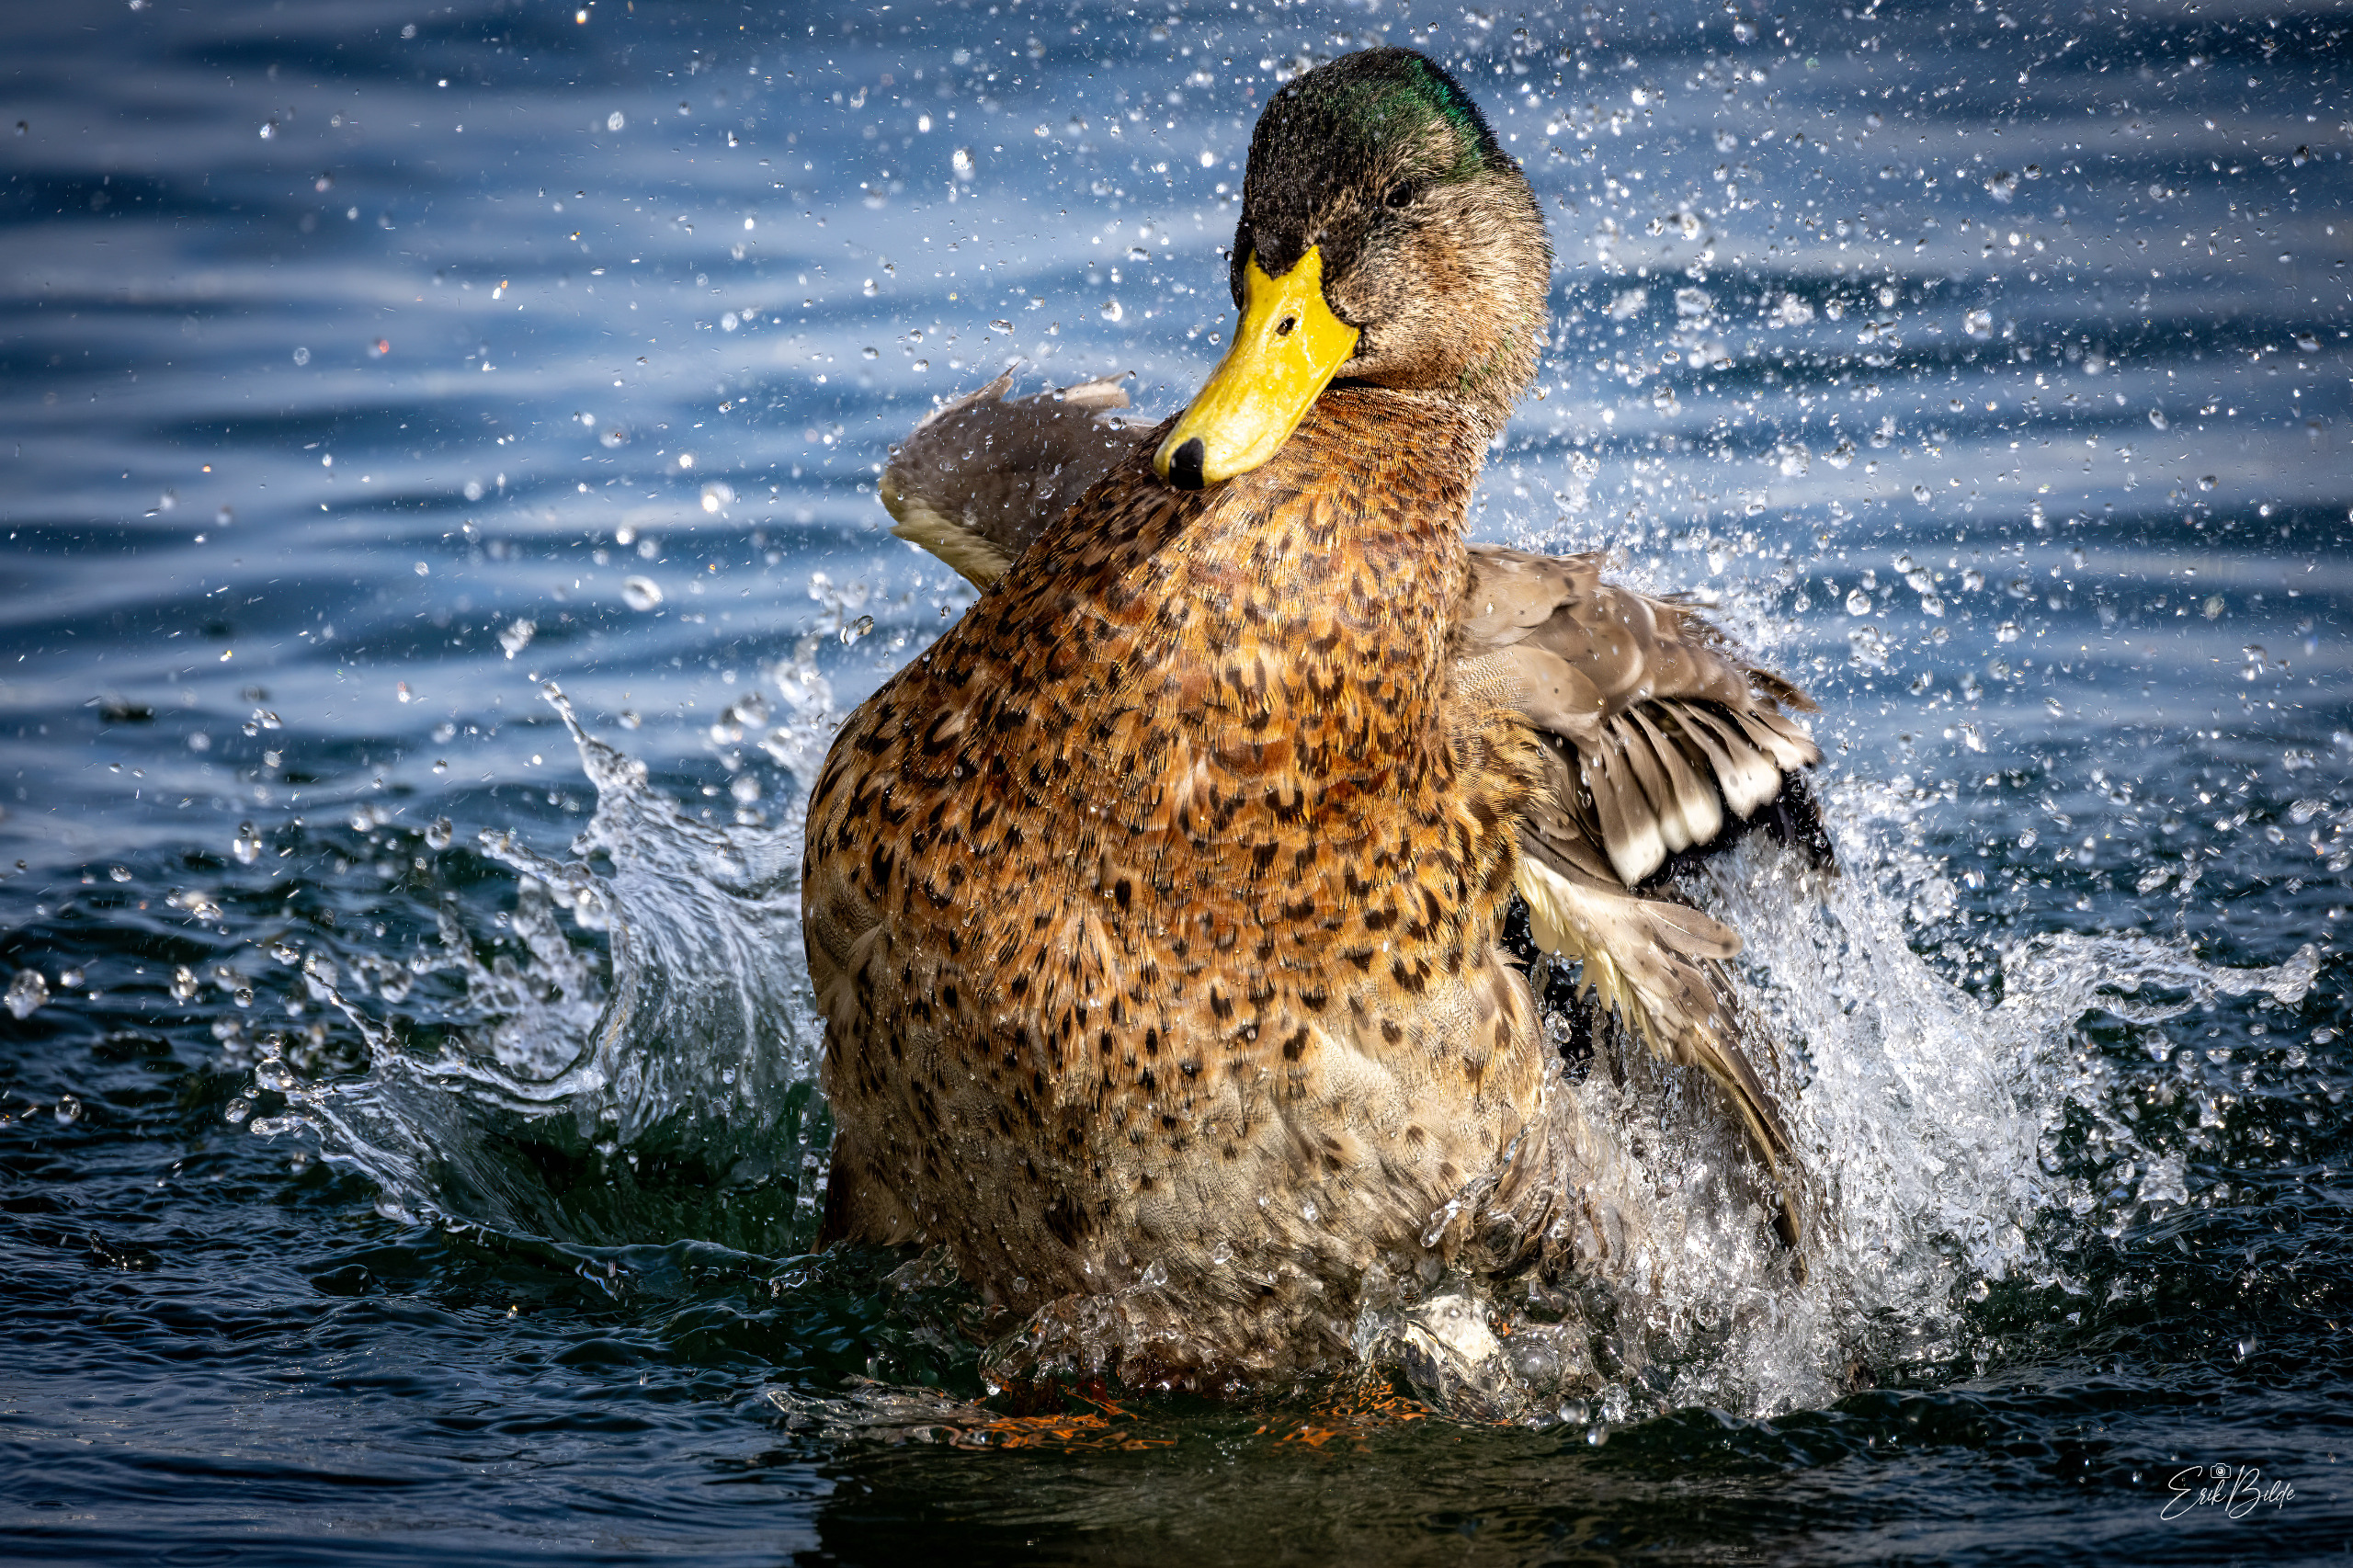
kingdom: Animalia
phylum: Chordata
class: Aves
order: Anseriformes
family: Anatidae
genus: Anas
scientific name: Anas platyrhynchos
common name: Gråand
